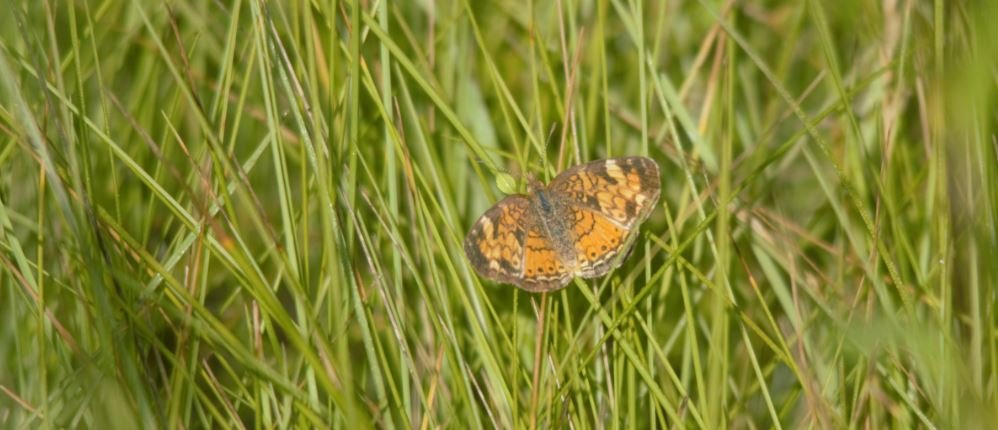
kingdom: Animalia
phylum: Arthropoda
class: Insecta
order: Lepidoptera
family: Nymphalidae
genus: Phyciodes
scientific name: Phyciodes tharos
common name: Northern Crescent
